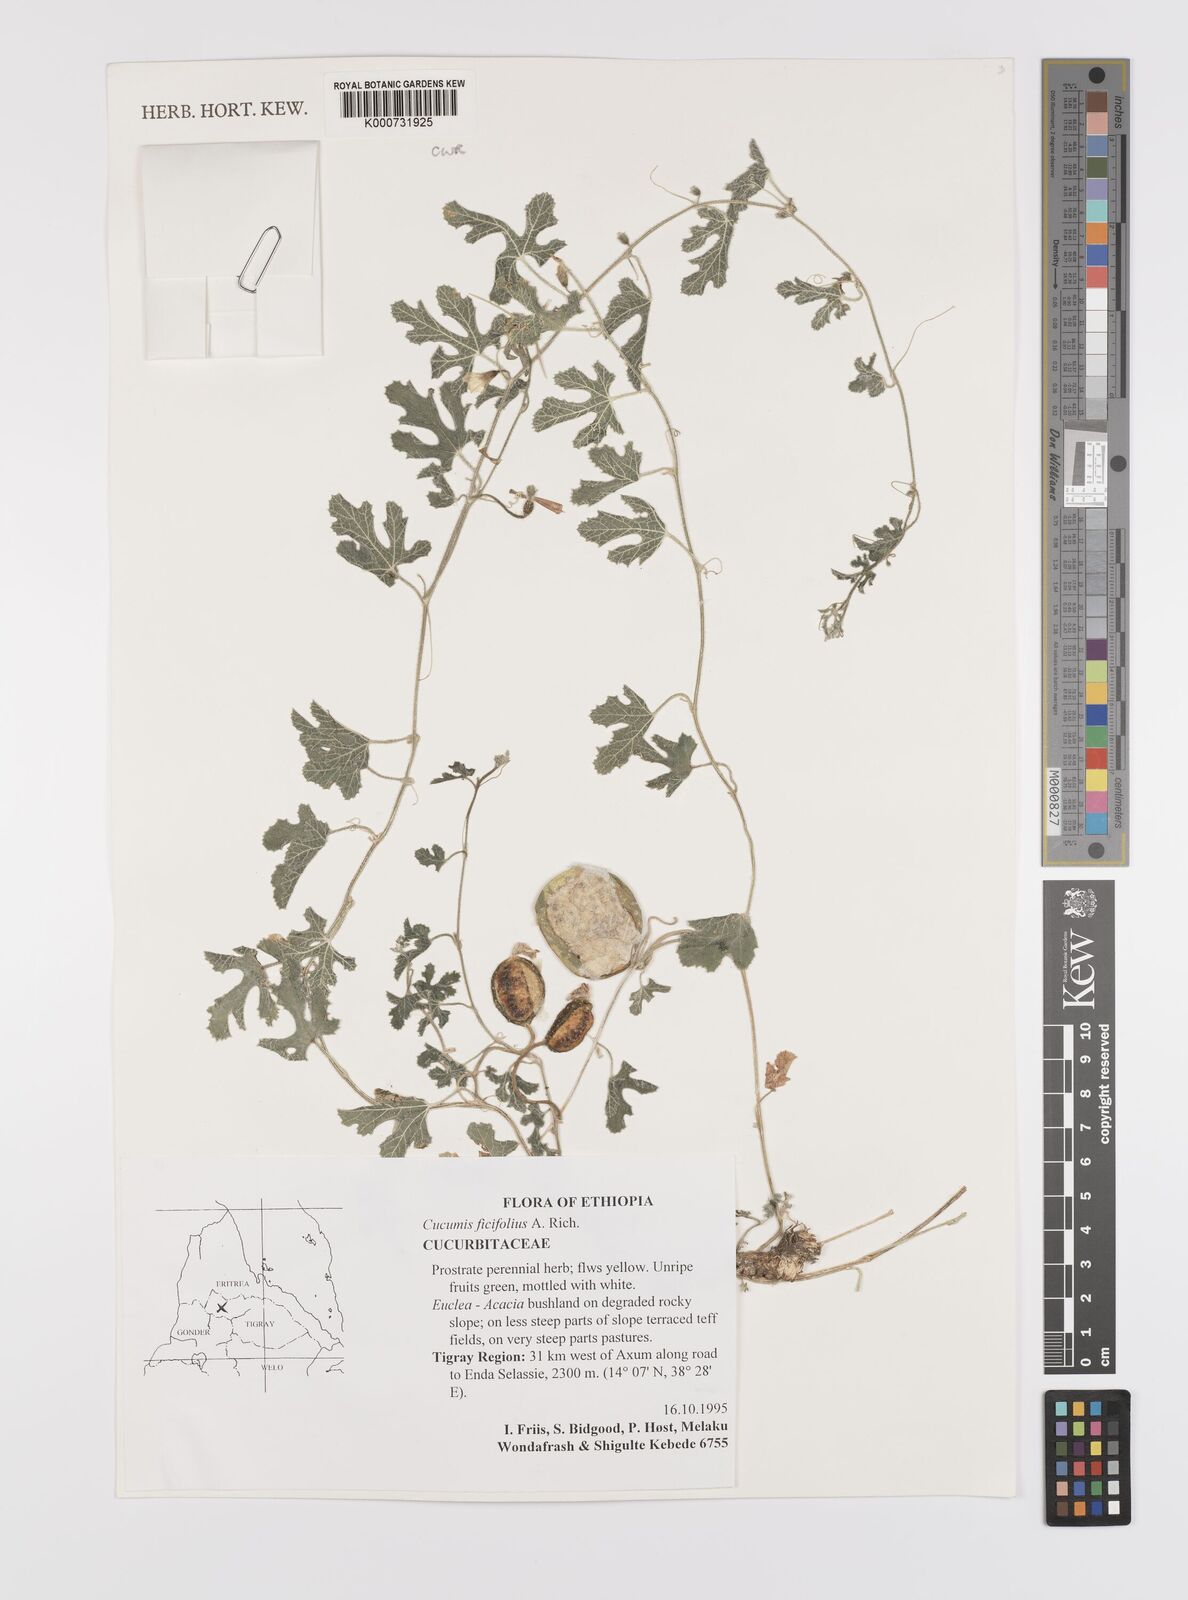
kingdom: Plantae
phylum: Tracheophyta
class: Magnoliopsida
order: Cucurbitales
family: Cucurbitaceae
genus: Cucumis
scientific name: Cucumis ficifolius
